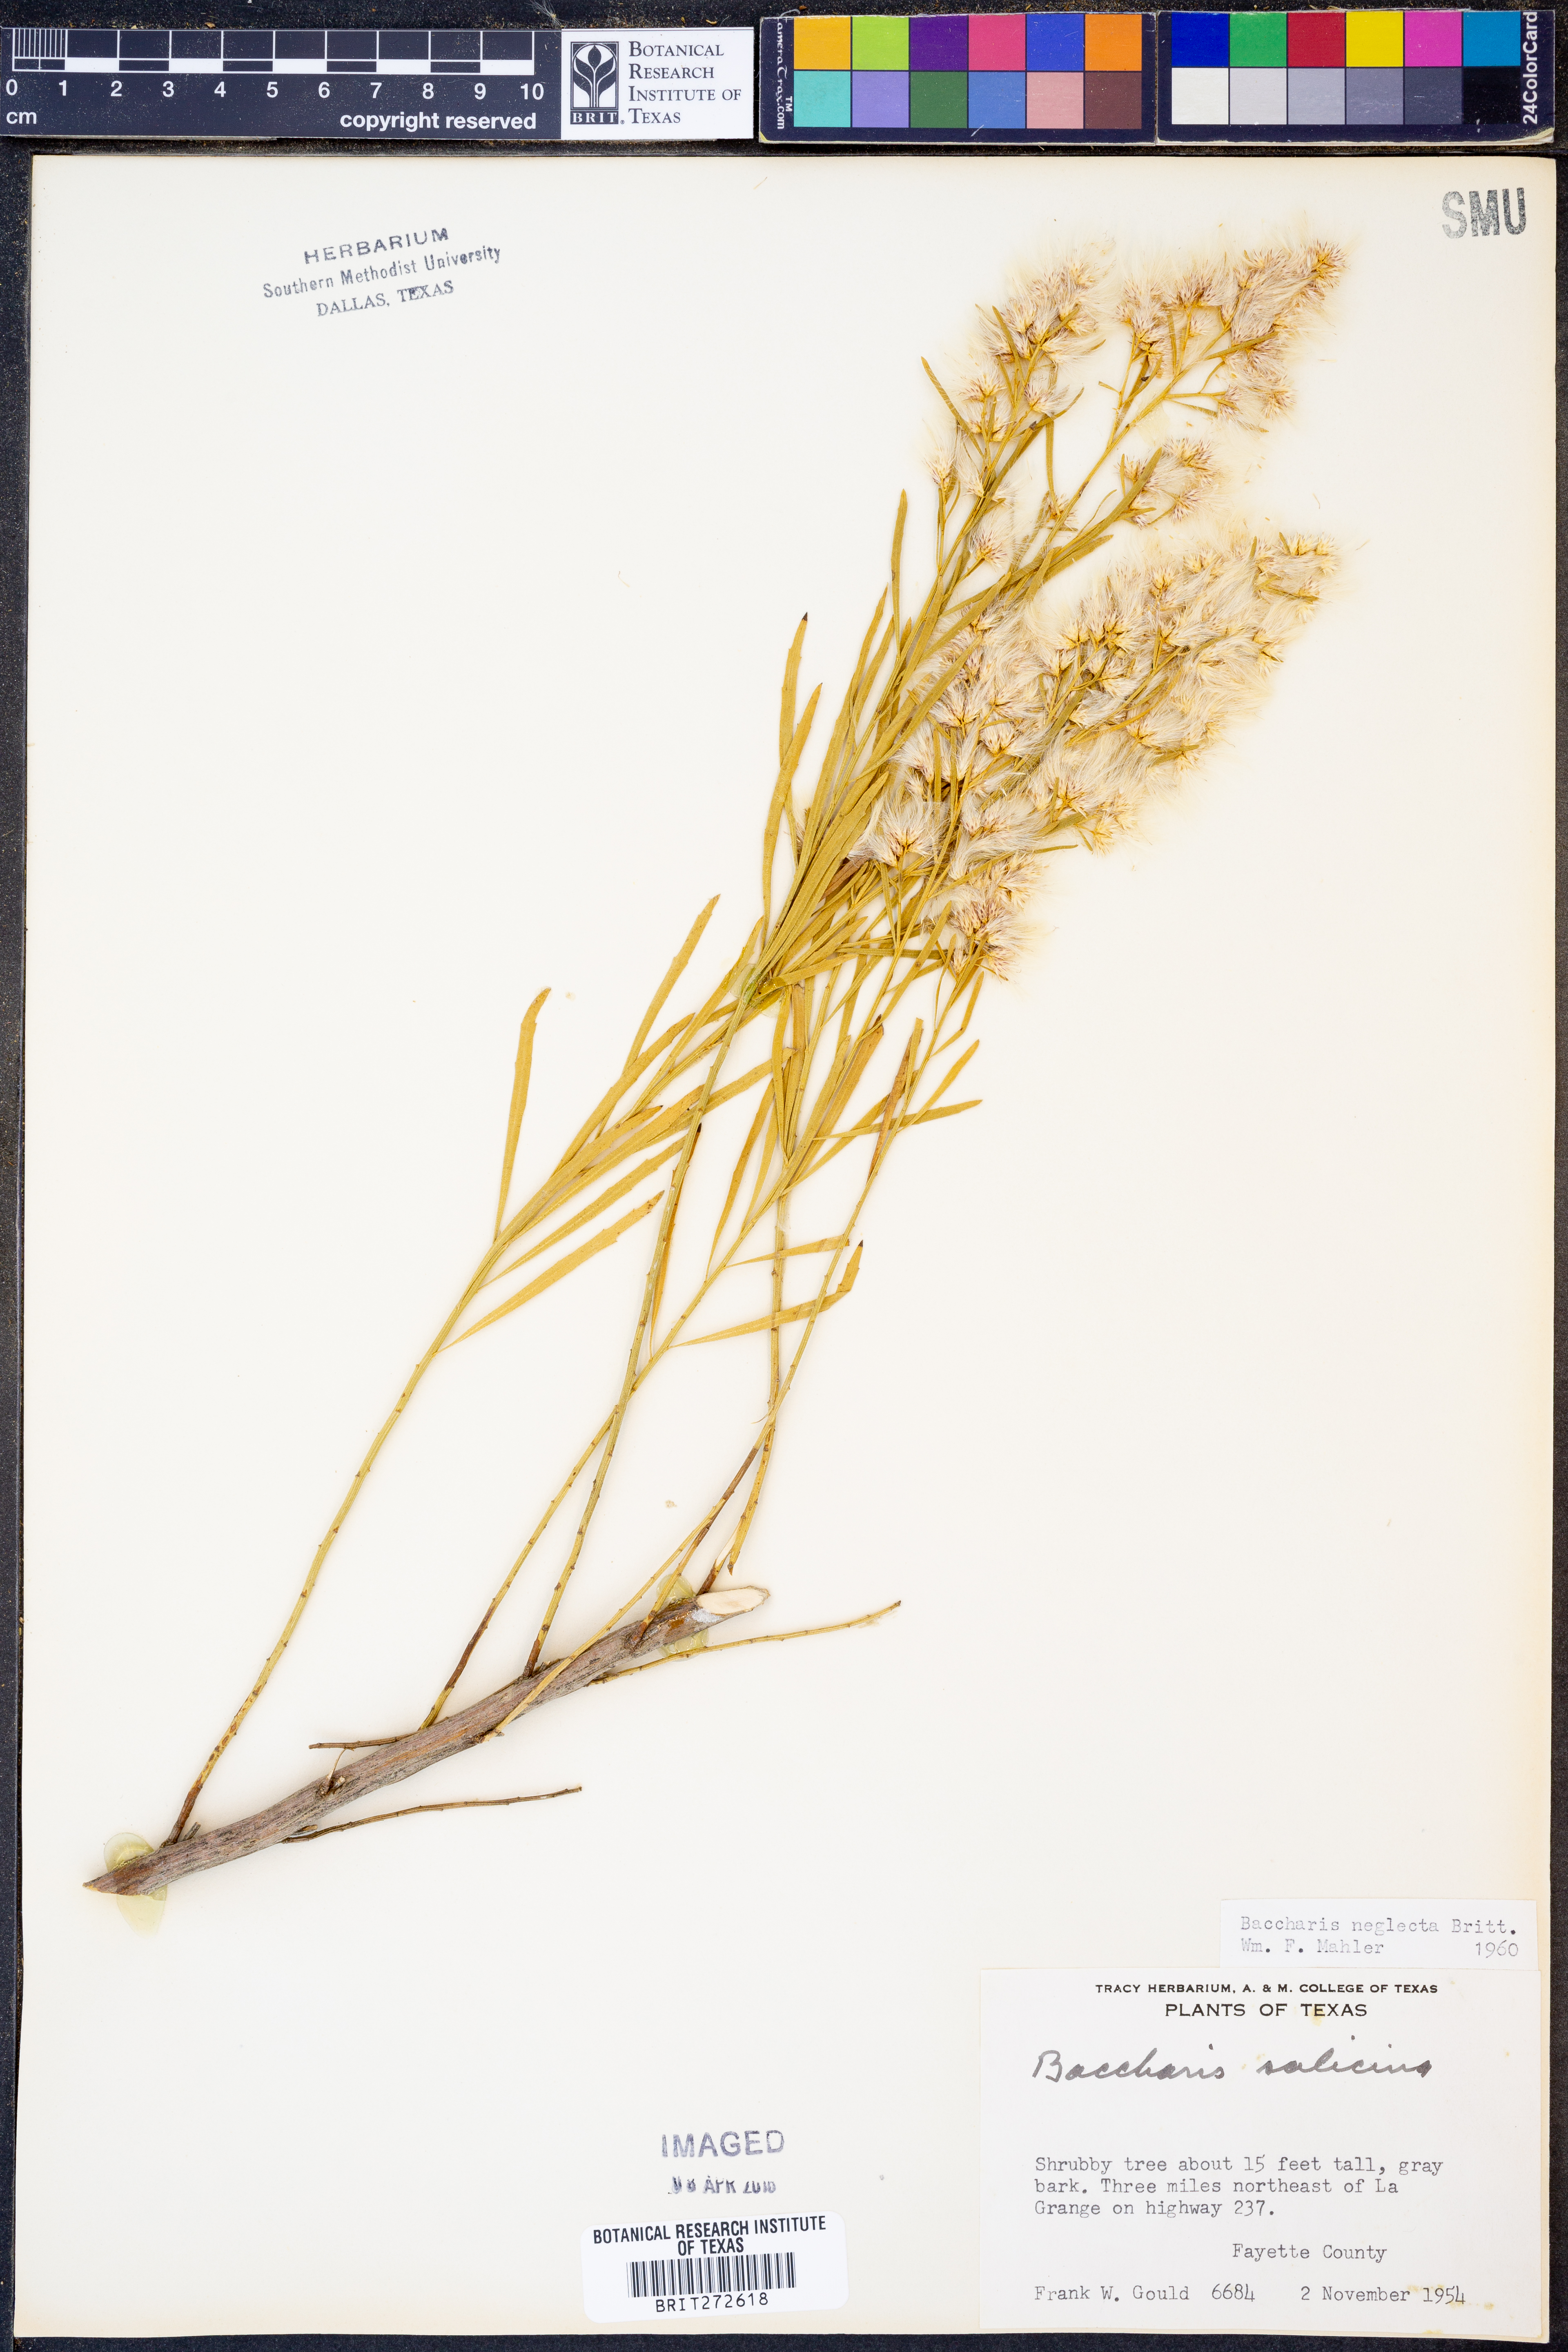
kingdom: Plantae
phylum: Tracheophyta
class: Magnoliopsida
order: Asterales
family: Asteraceae
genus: Baccharis
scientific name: Baccharis neglecta
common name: Roosevelt-weed
